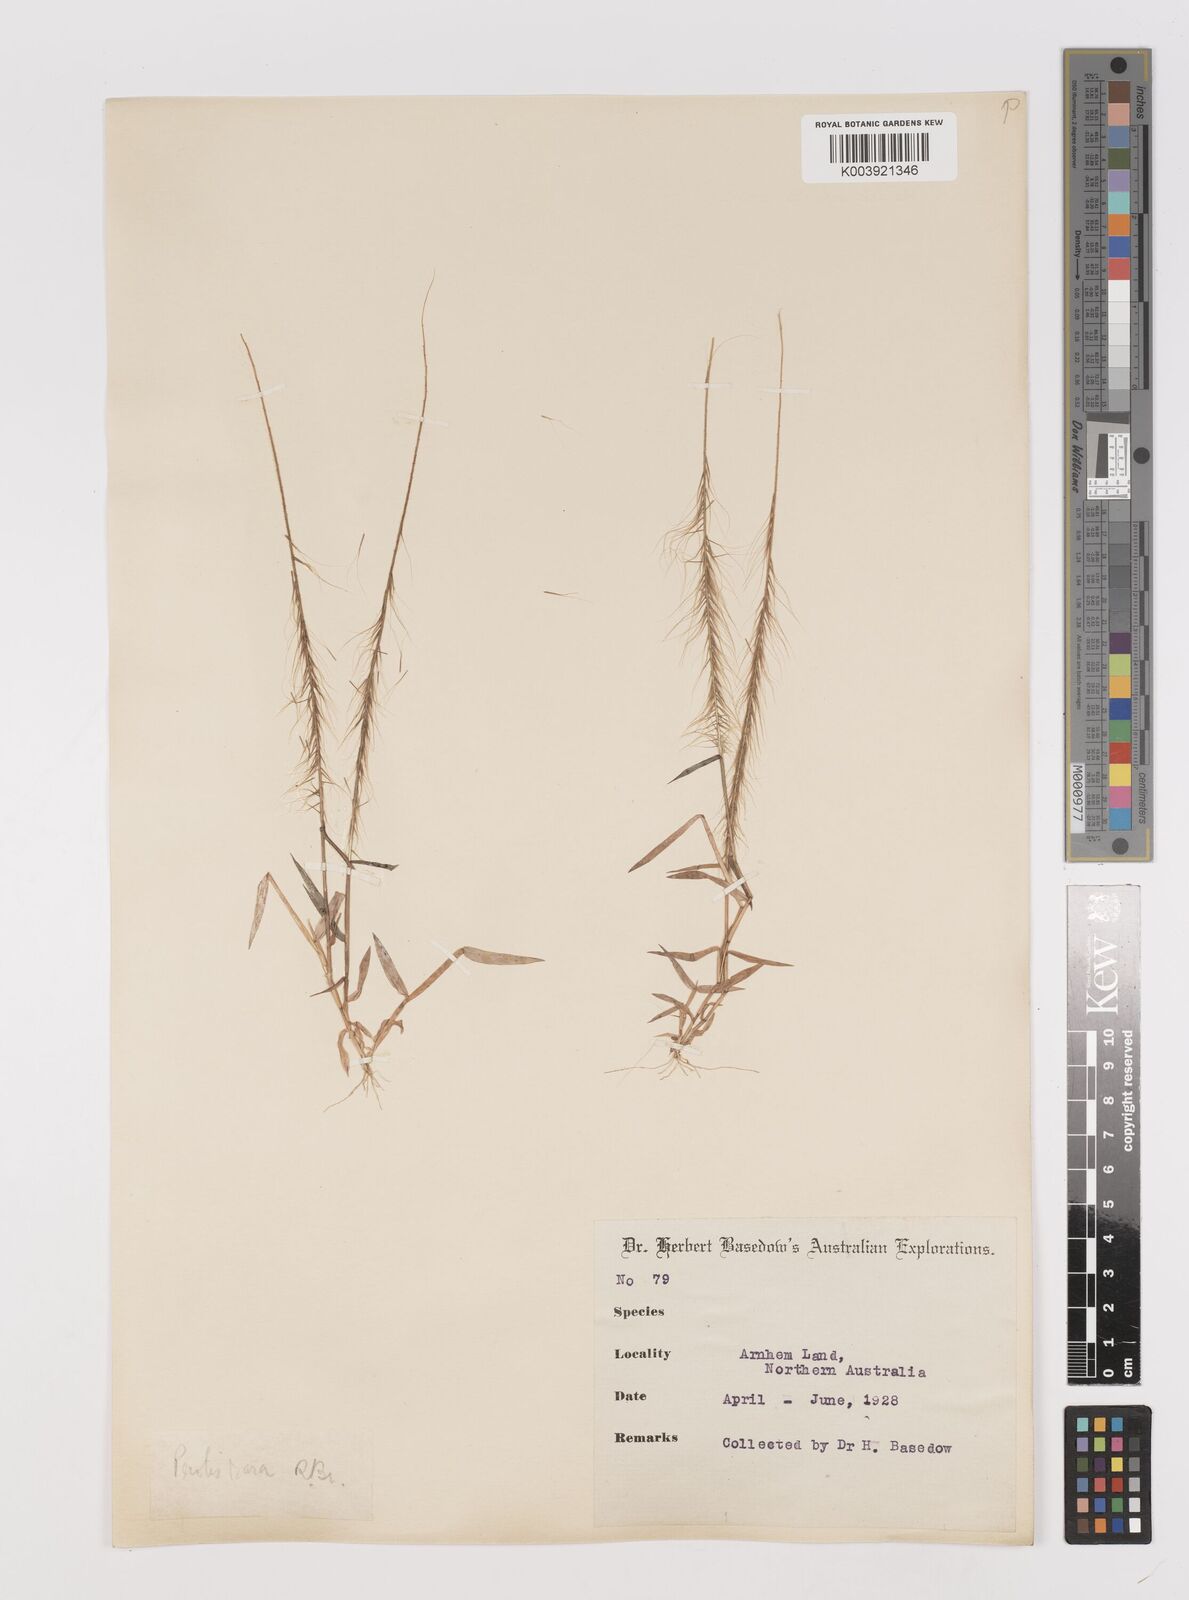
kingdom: Plantae
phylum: Tracheophyta
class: Liliopsida
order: Poales
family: Poaceae
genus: Perotis
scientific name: Perotis rara
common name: Comet grass
